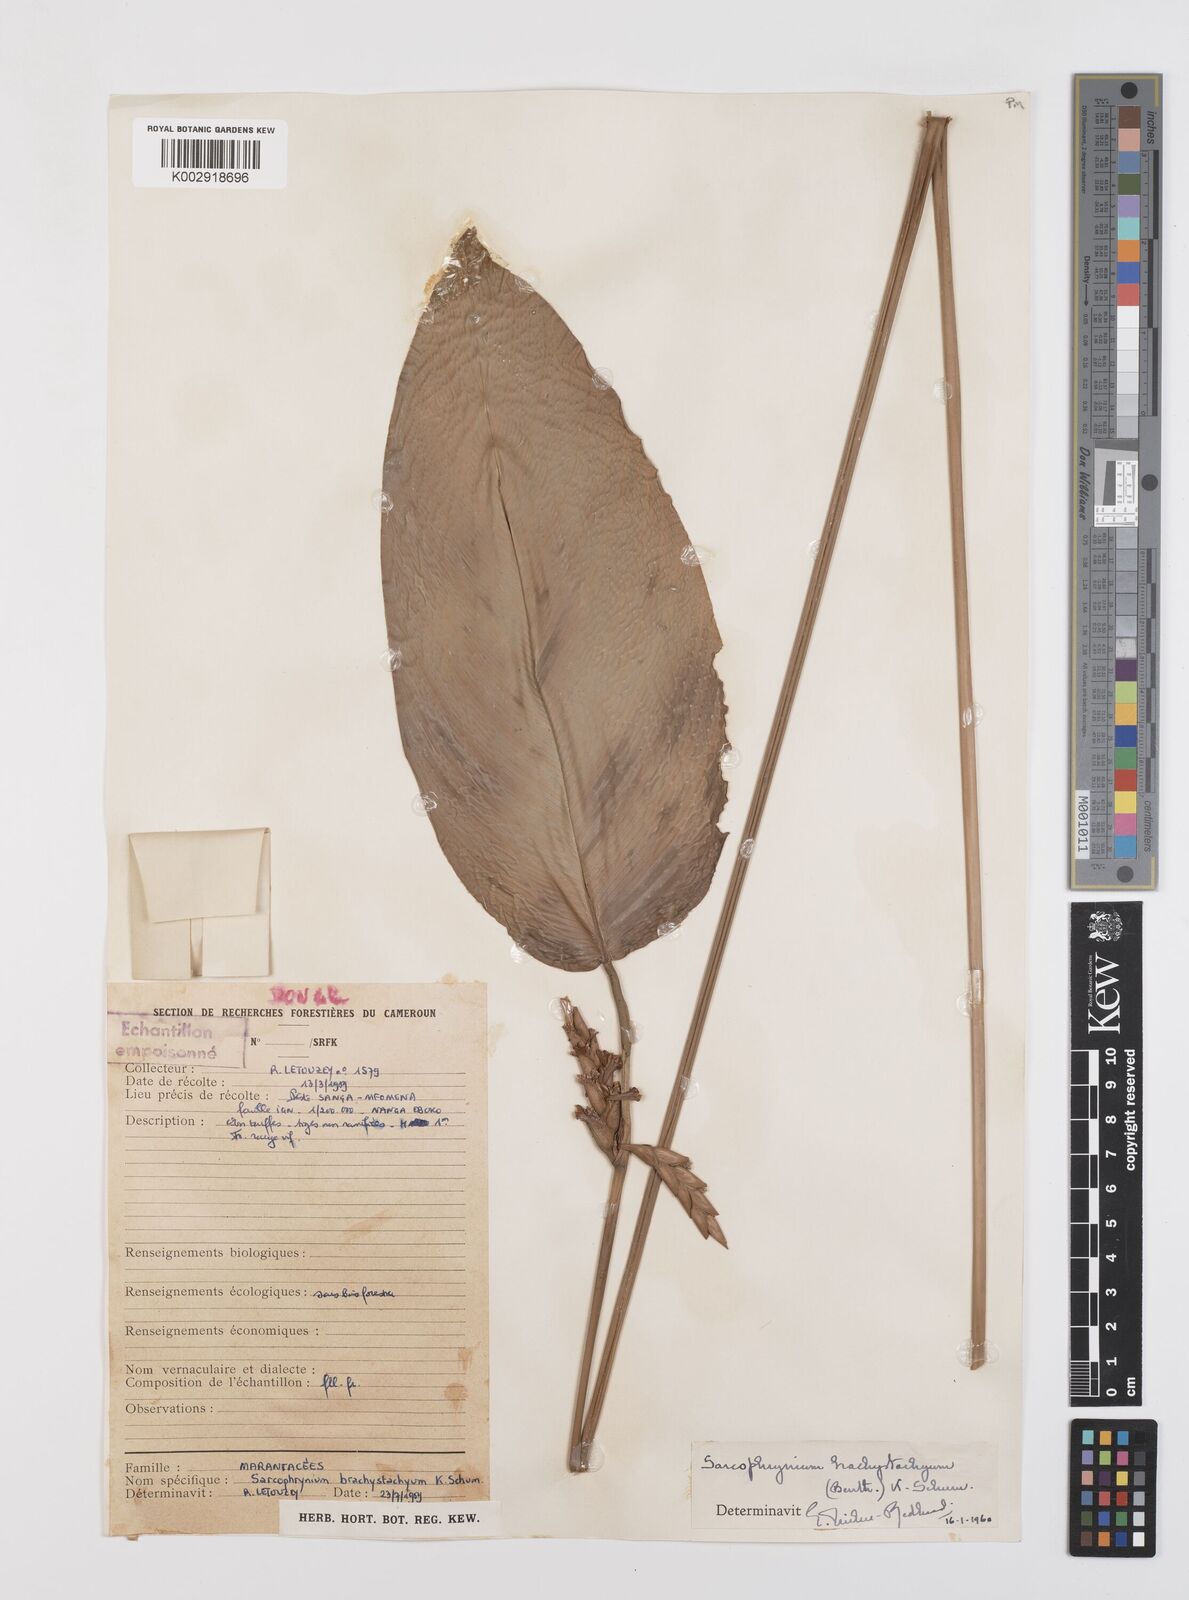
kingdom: Plantae
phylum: Tracheophyta
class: Liliopsida
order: Zingiberales
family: Marantaceae
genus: Sarcophrynium
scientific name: Sarcophrynium brachystachyum
